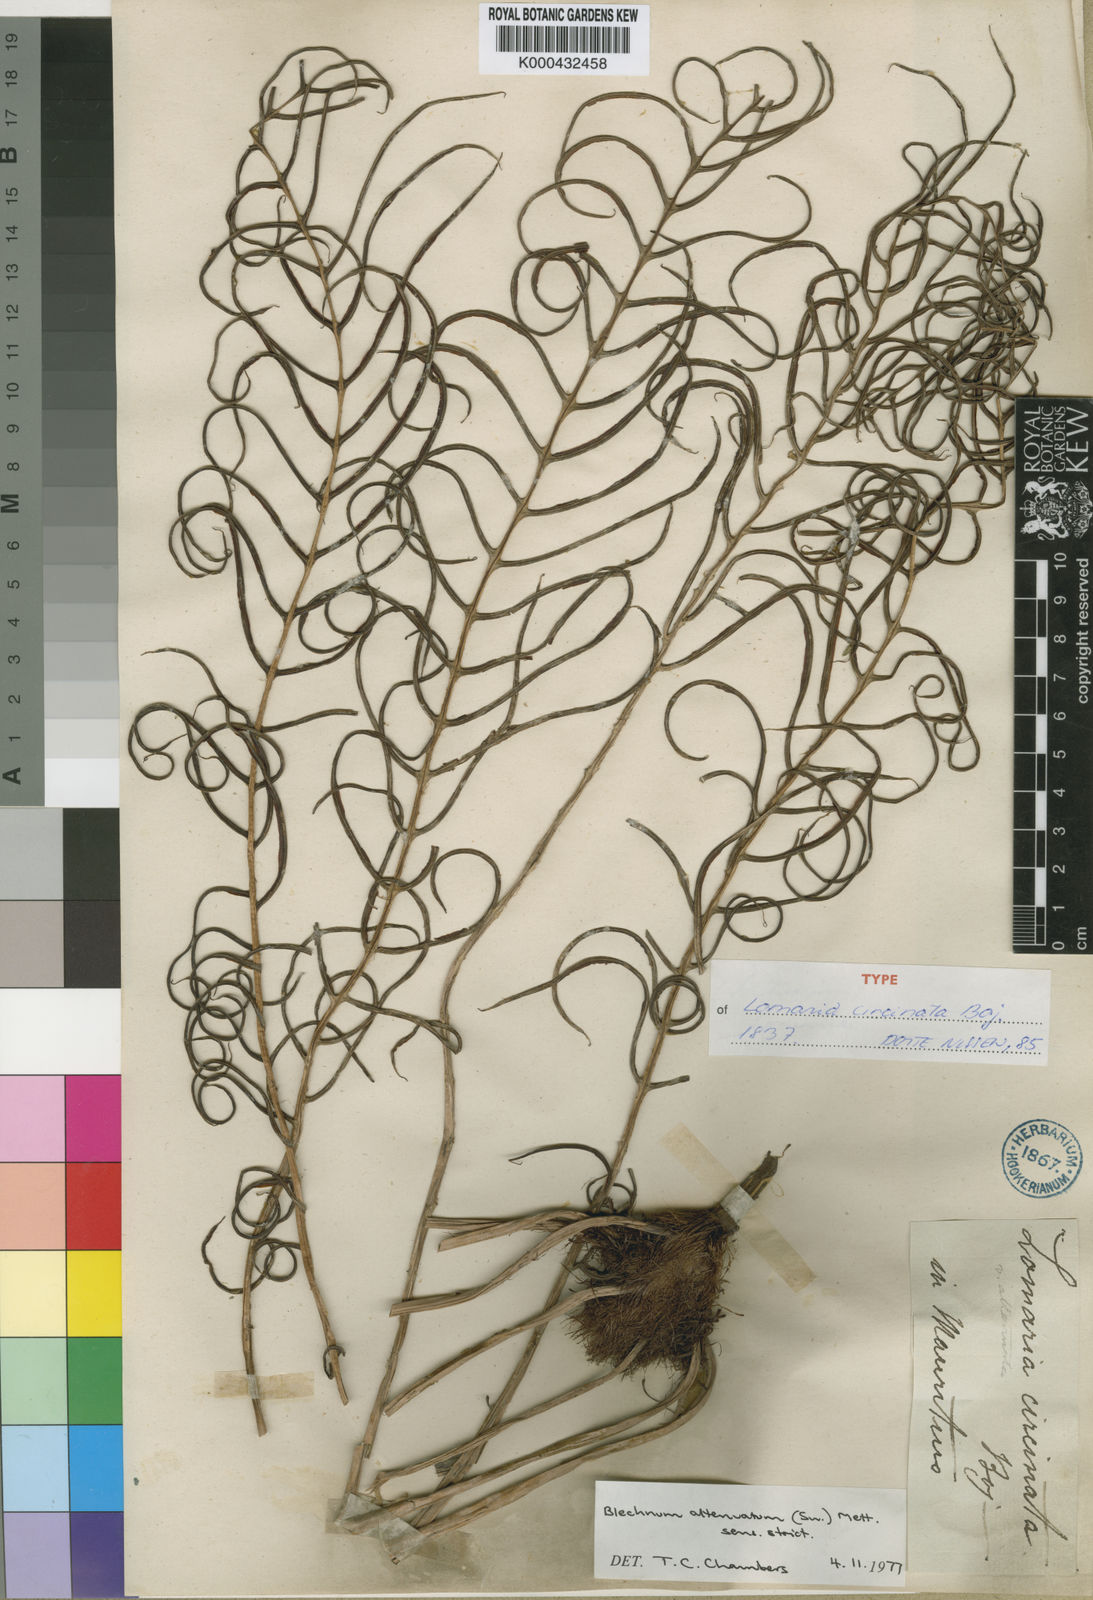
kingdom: Plantae
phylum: Tracheophyta
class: Polypodiopsida
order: Polypodiales
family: Blechnaceae
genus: Lomaridium
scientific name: Lomaridium attenuatum
